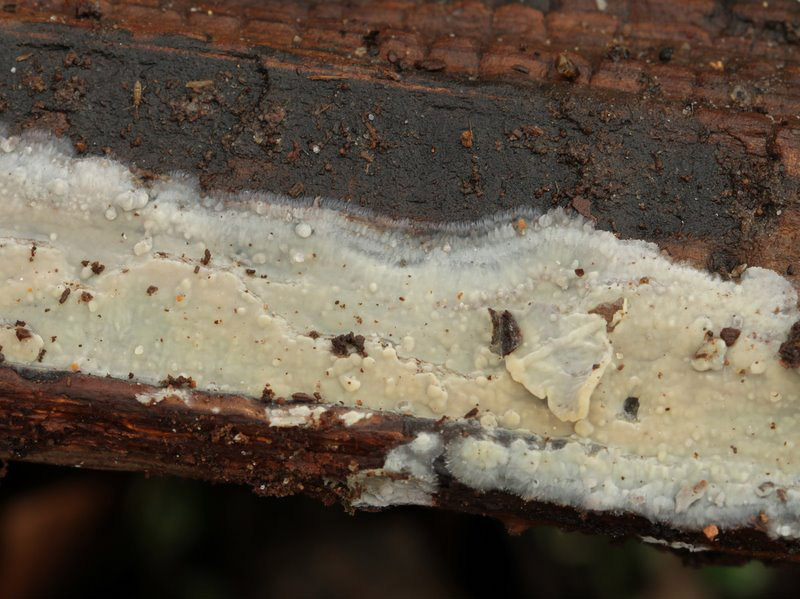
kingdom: Fungi
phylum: Basidiomycota
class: Agaricomycetes
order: Agaricales
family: Radulomycetaceae
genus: Radulomyces
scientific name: Radulomyces confluens
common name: glat naftalinskind
